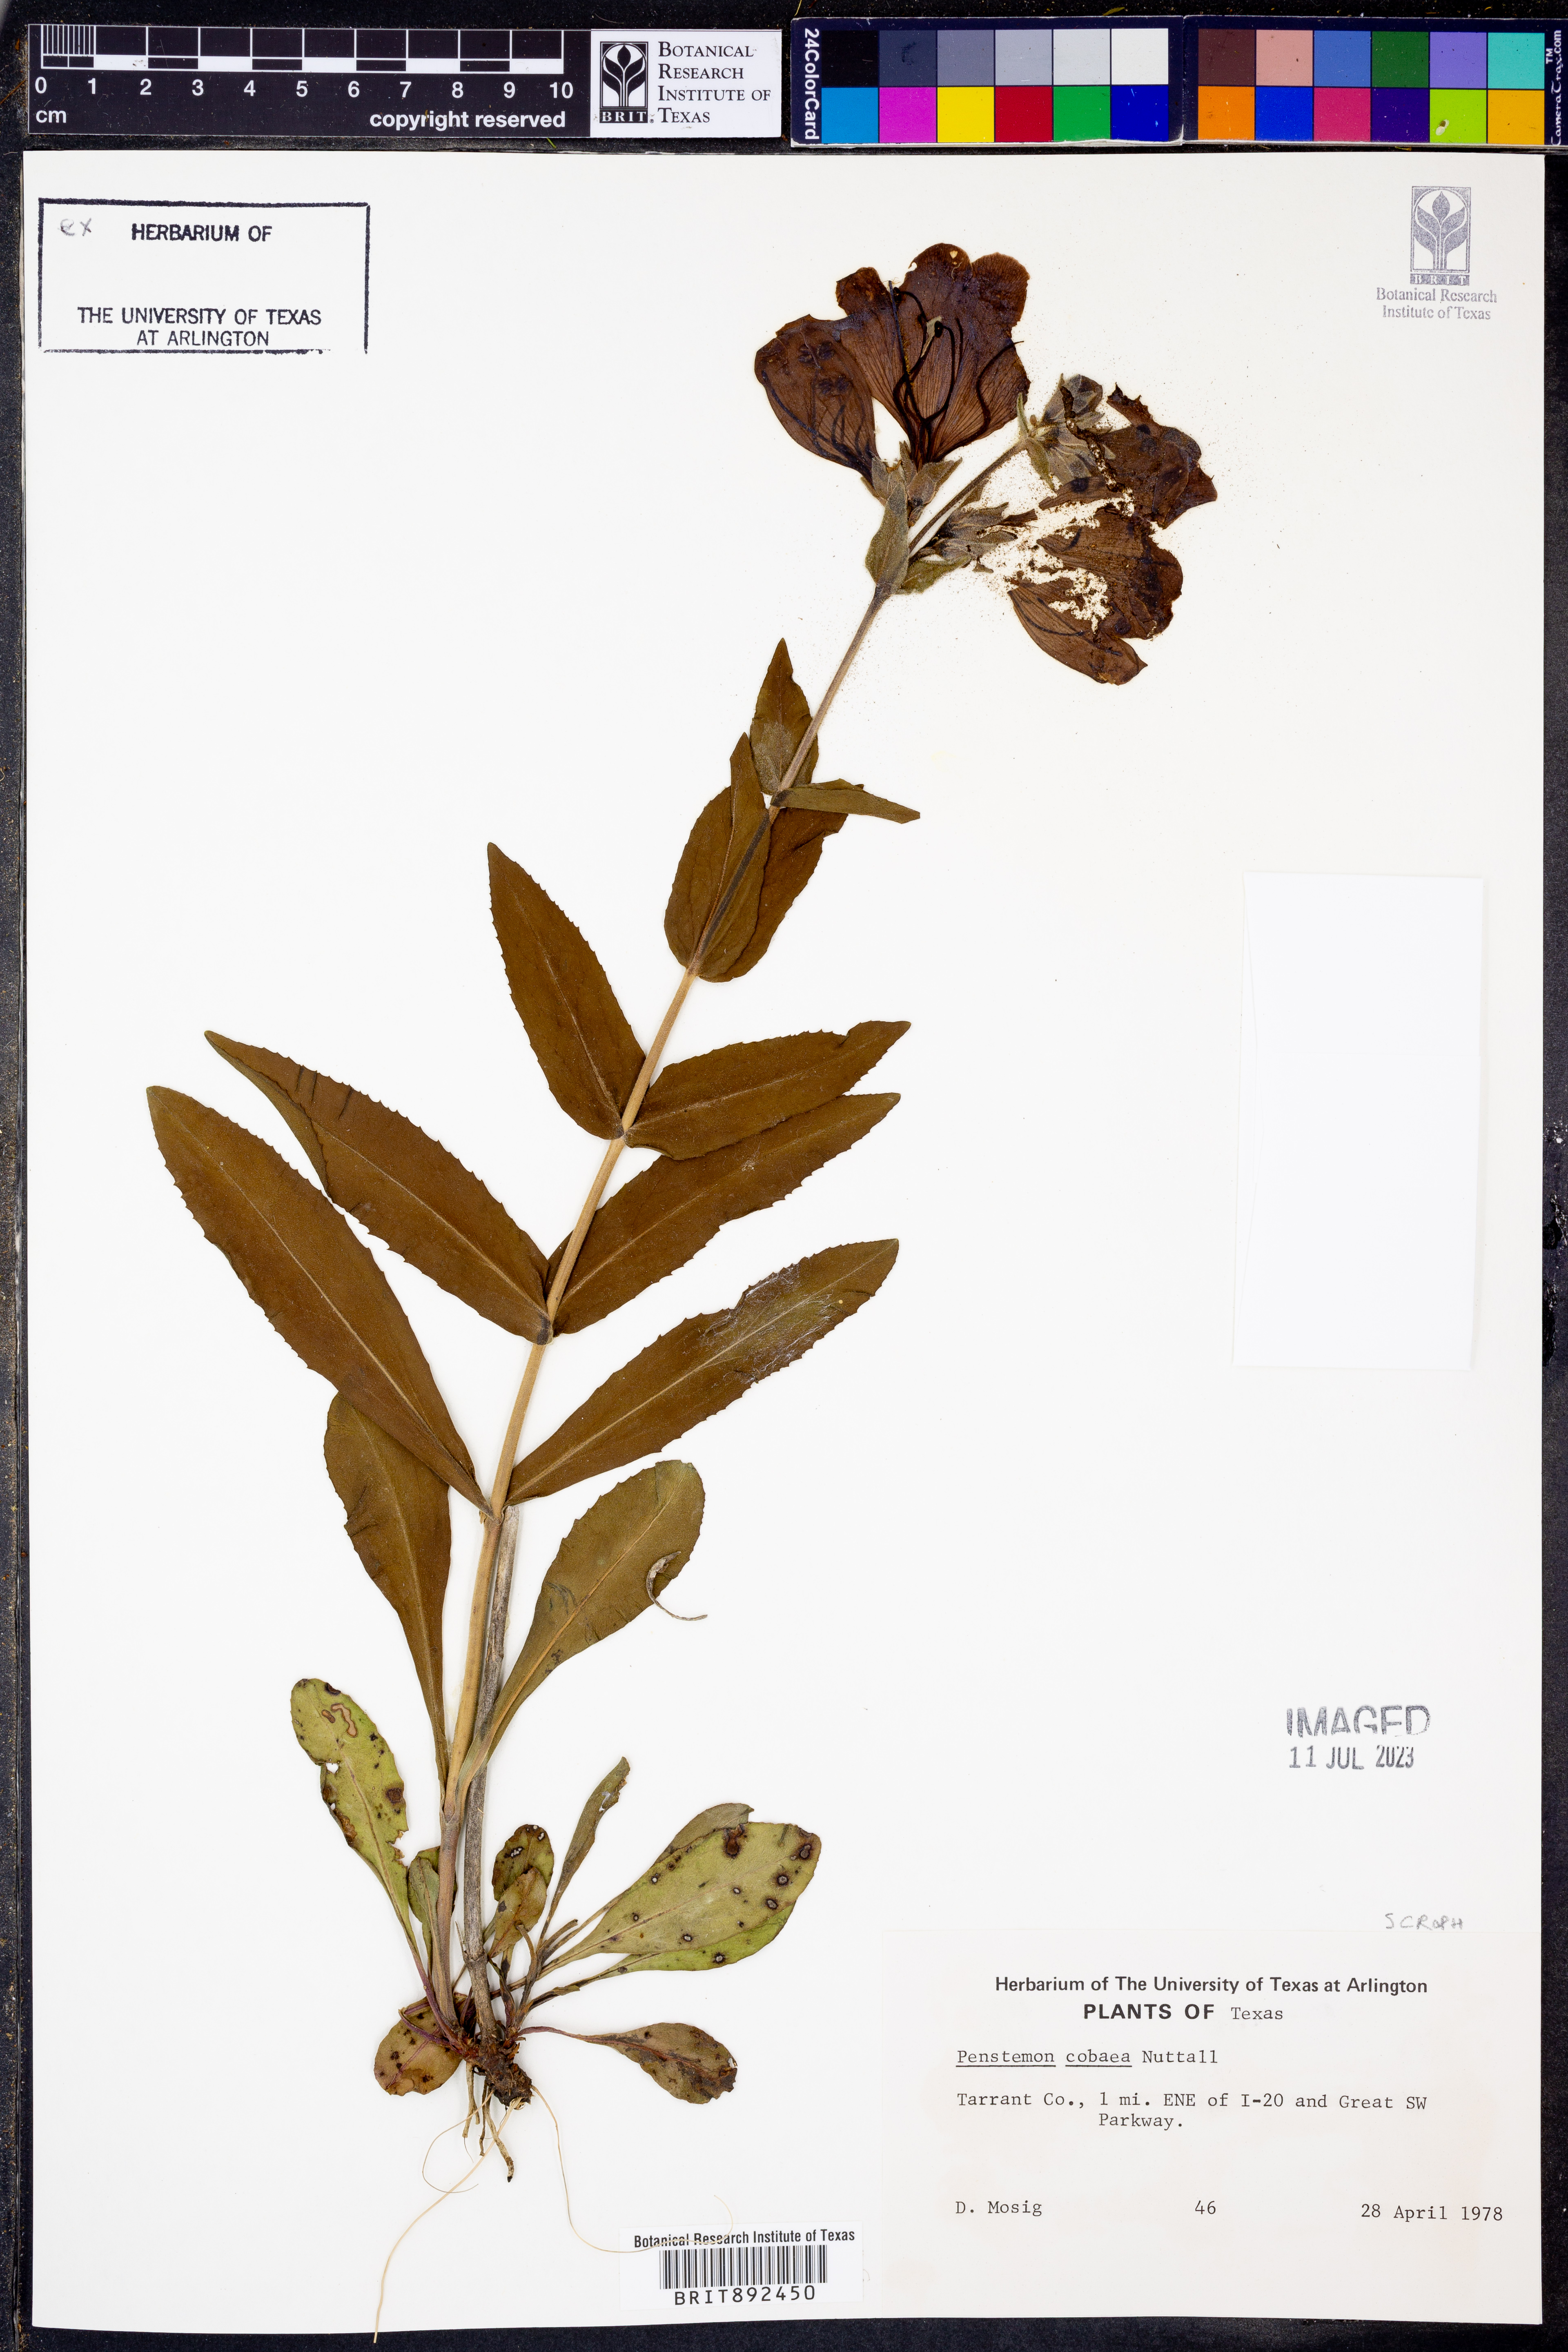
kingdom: Plantae
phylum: Tracheophyta
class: Magnoliopsida
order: Lamiales
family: Plantaginaceae
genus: Penstemon
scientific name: Penstemon cobaea
